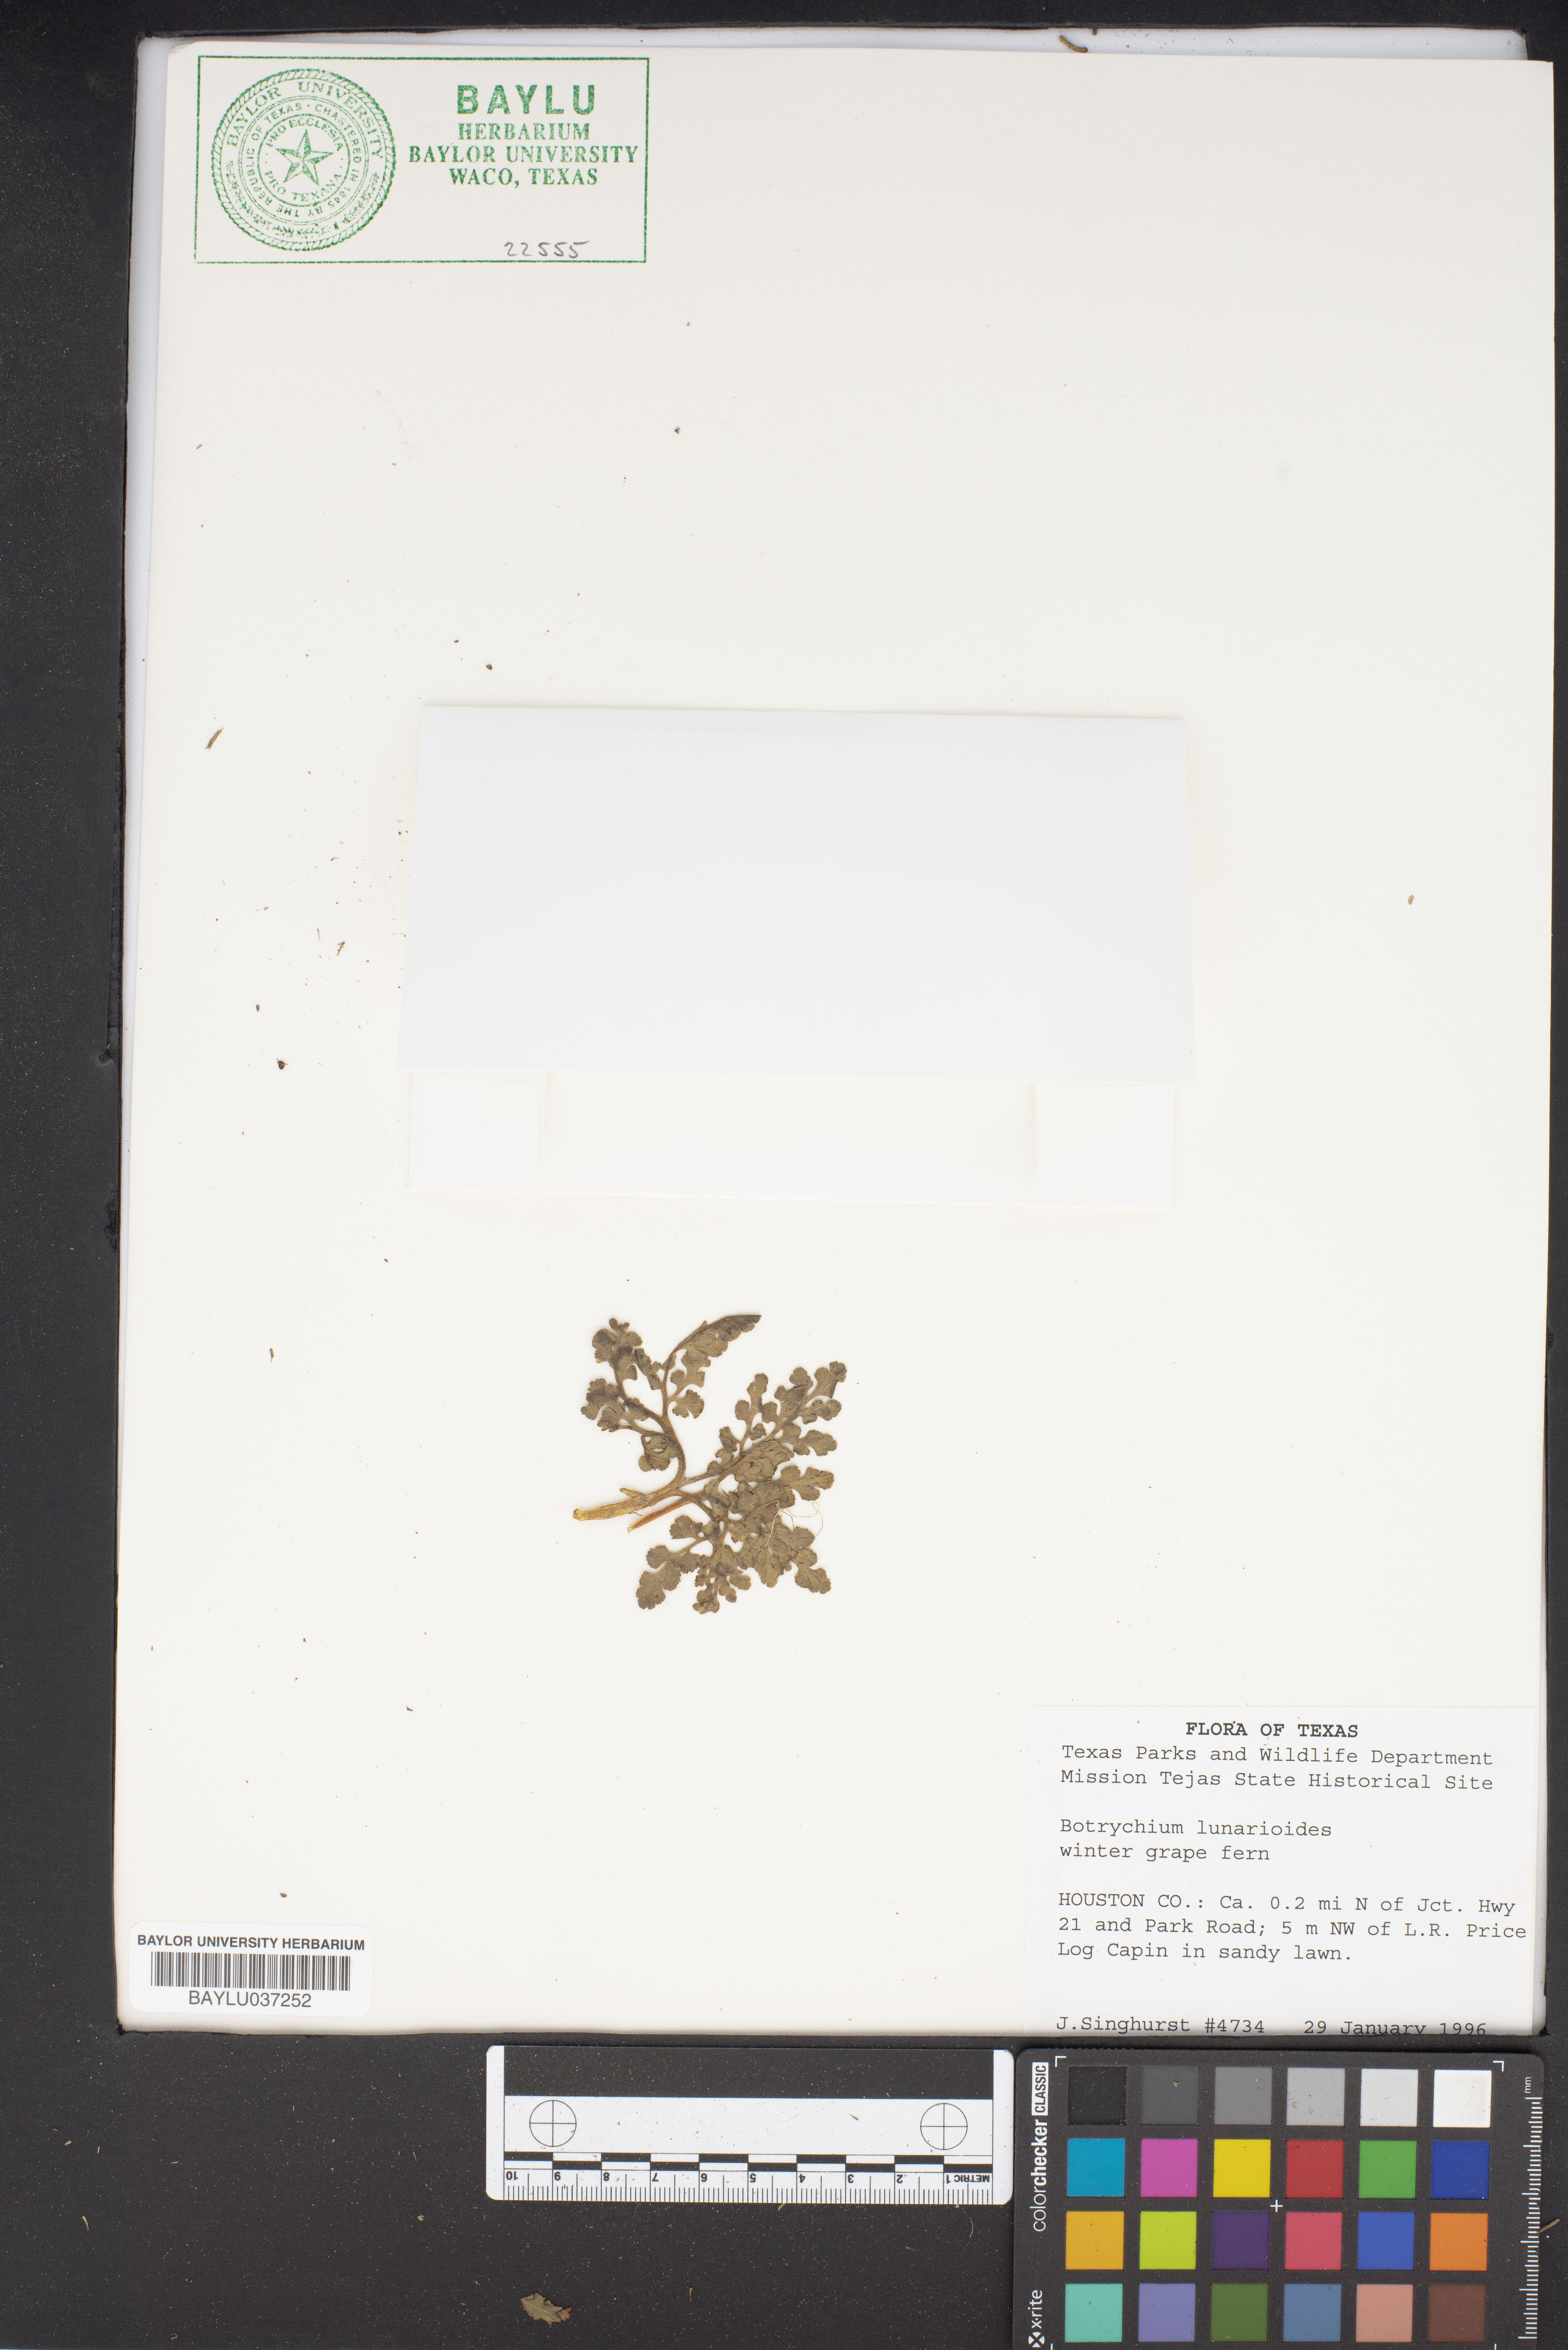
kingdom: Plantae
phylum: Tracheophyta
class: Polypodiopsida
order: Ophioglossales
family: Ophioglossaceae
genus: Sceptridium
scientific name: Sceptridium lunarioides
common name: Prostrate grapefern
